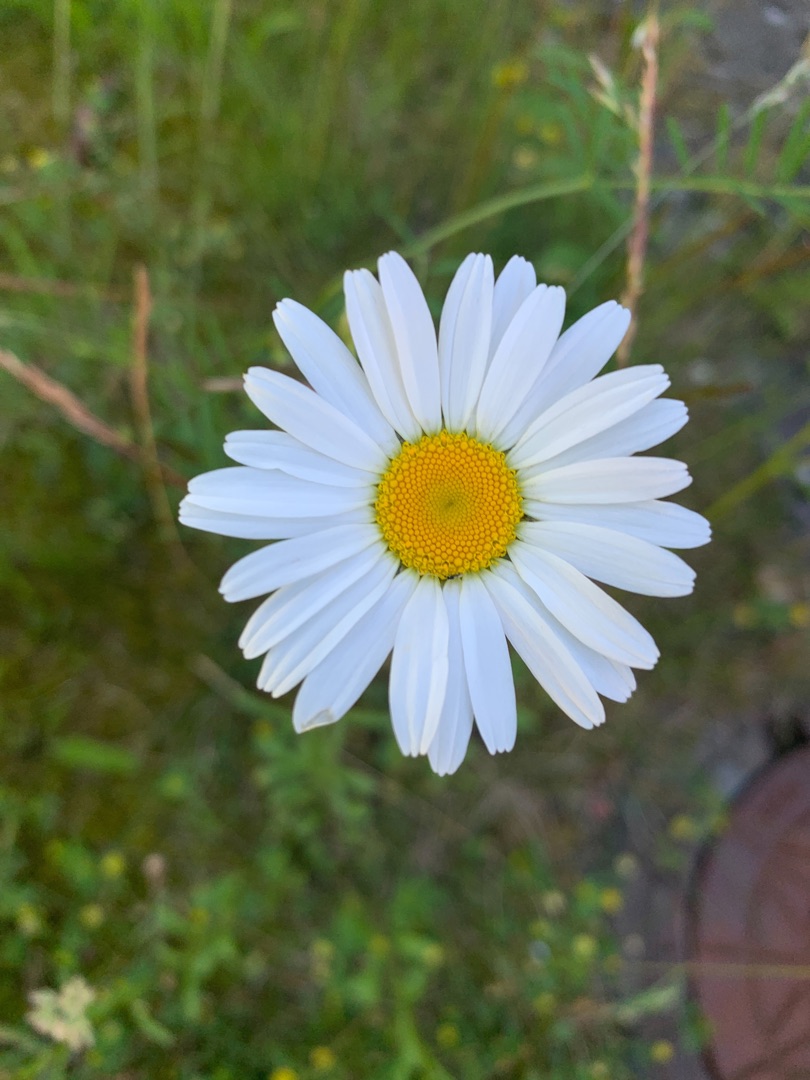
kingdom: Plantae
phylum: Tracheophyta
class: Magnoliopsida
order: Asterales
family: Asteraceae
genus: Leucanthemum
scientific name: Leucanthemum vulgare
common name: Hvid okseøje
